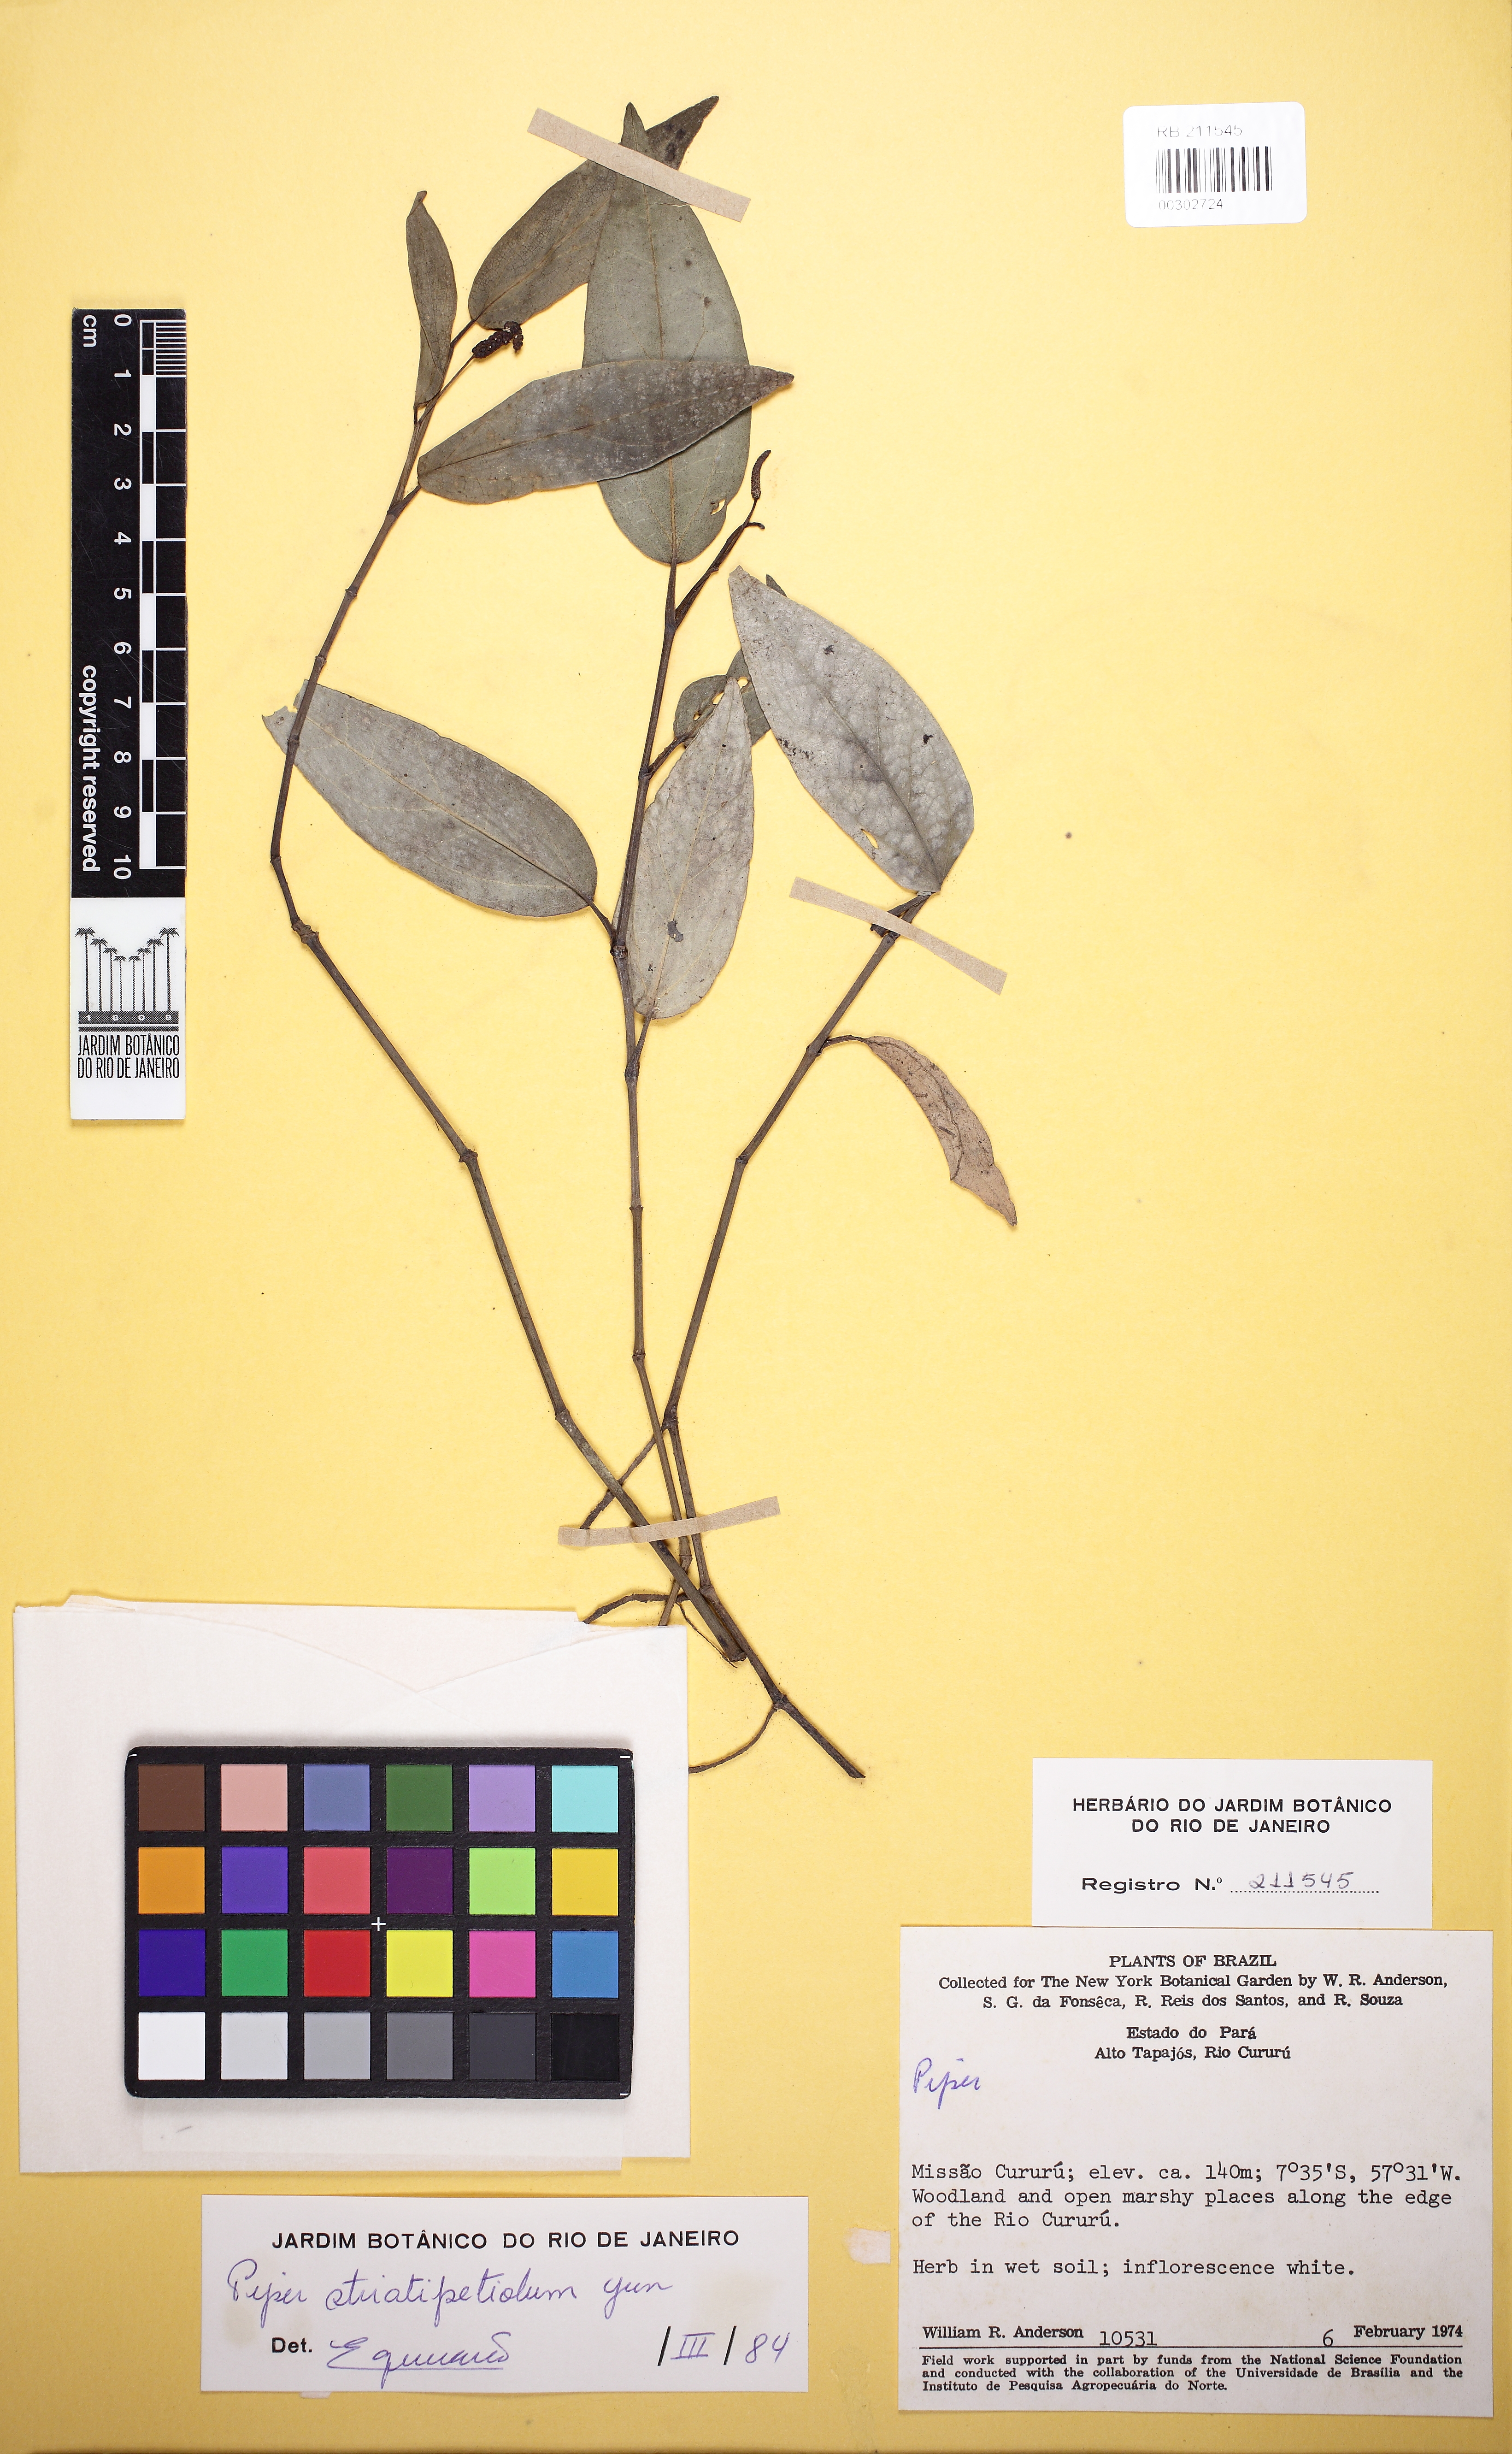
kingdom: Plantae
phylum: Tracheophyta
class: Magnoliopsida
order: Piperales
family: Piperaceae
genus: Piper
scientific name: Piper striatipetiolum
